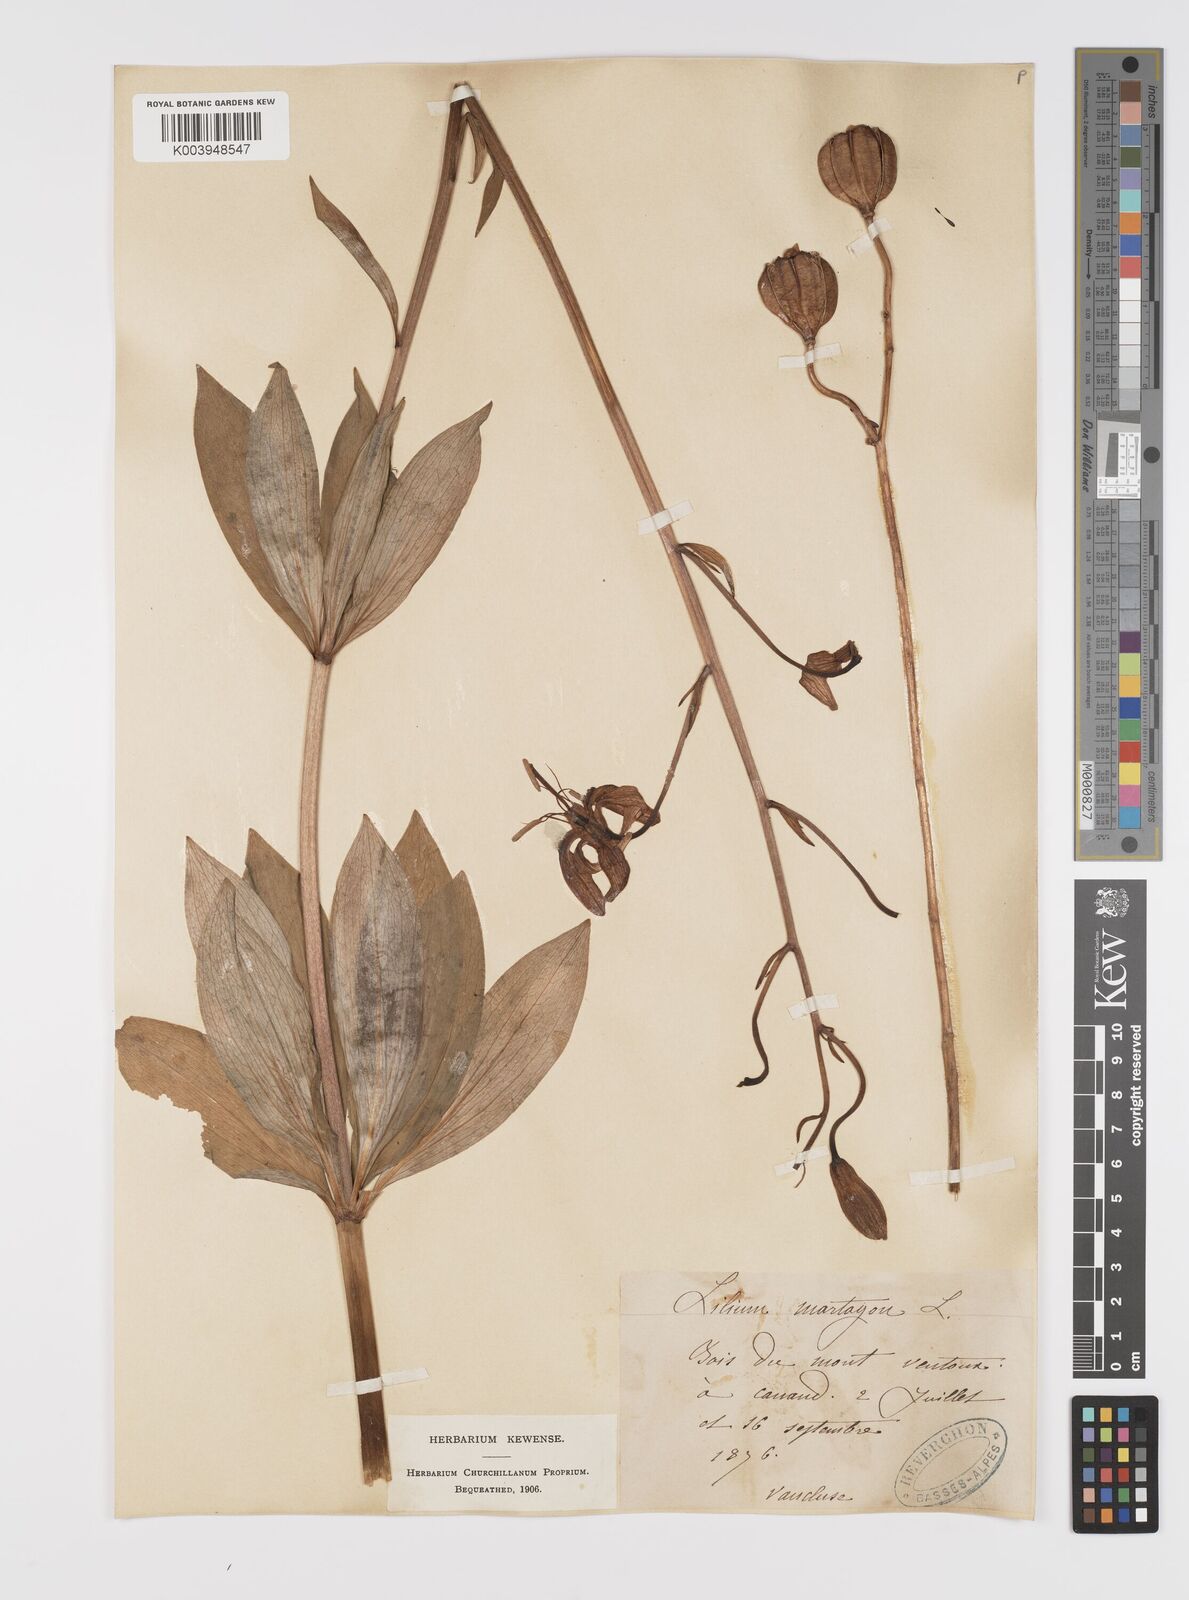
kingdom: Plantae
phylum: Tracheophyta
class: Liliopsida
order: Liliales
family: Liliaceae
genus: Lilium
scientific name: Lilium martagon
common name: Martagon lily
